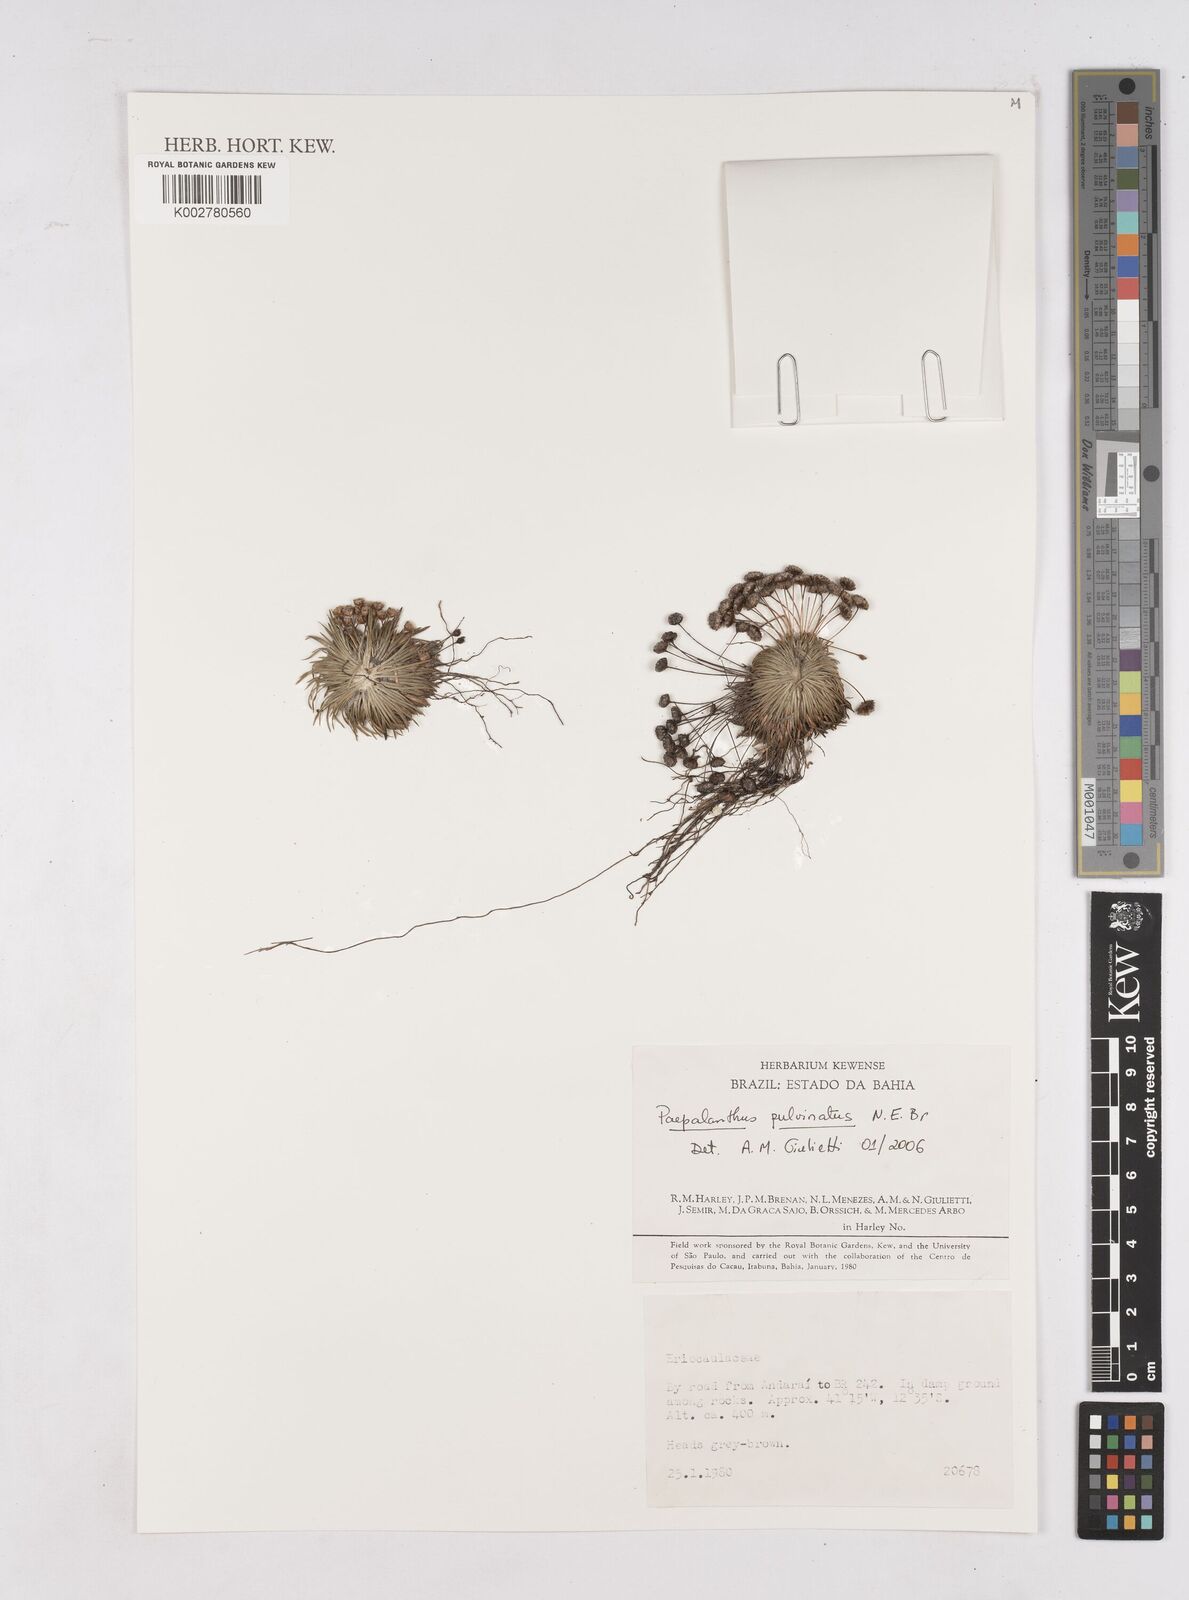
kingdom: Plantae
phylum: Tracheophyta
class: Liliopsida
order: Poales
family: Eriocaulaceae
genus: Paepalanthus
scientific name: Paepalanthus pulvinatus
